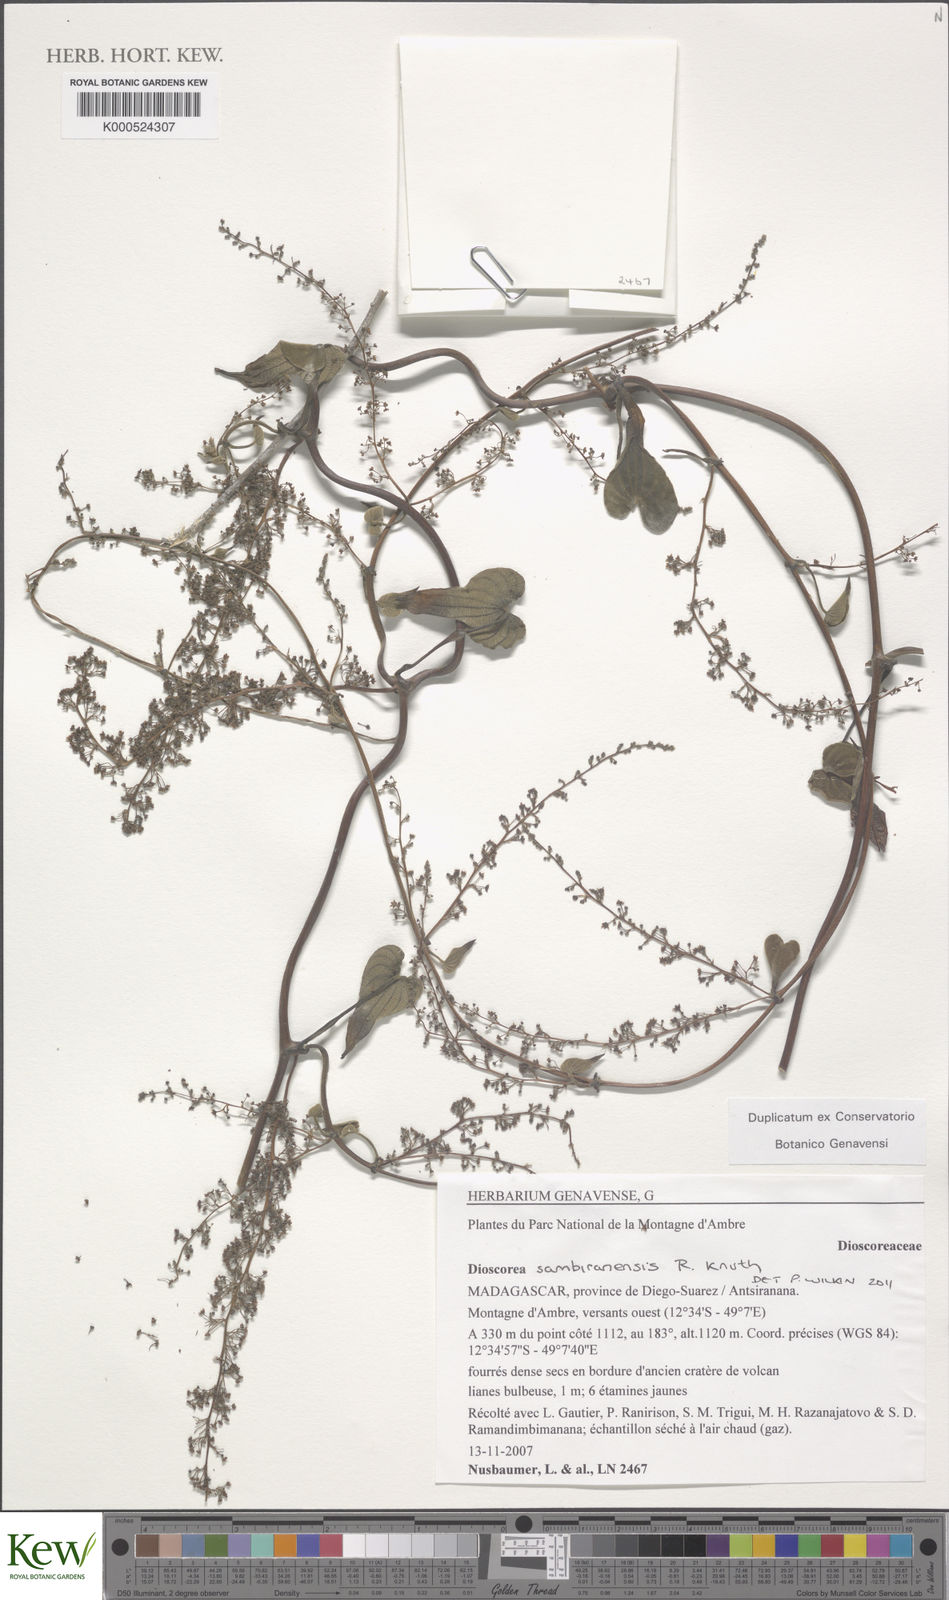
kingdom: Plantae
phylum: Tracheophyta
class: Liliopsida
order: Dioscoreales
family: Dioscoreaceae
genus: Dioscorea
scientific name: Dioscorea sambiranensis
